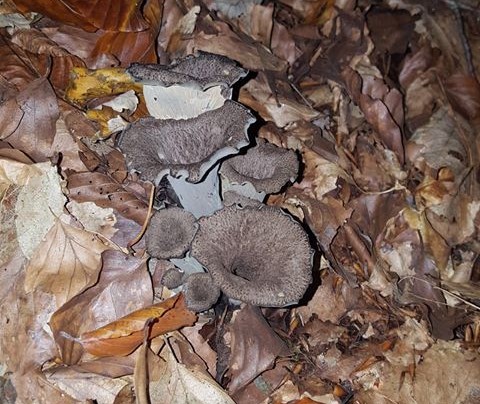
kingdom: Fungi
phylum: Basidiomycota
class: Agaricomycetes
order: Cantharellales
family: Hydnaceae
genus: Craterellus
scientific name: Craterellus cornucopioides
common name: trompetsvamp
